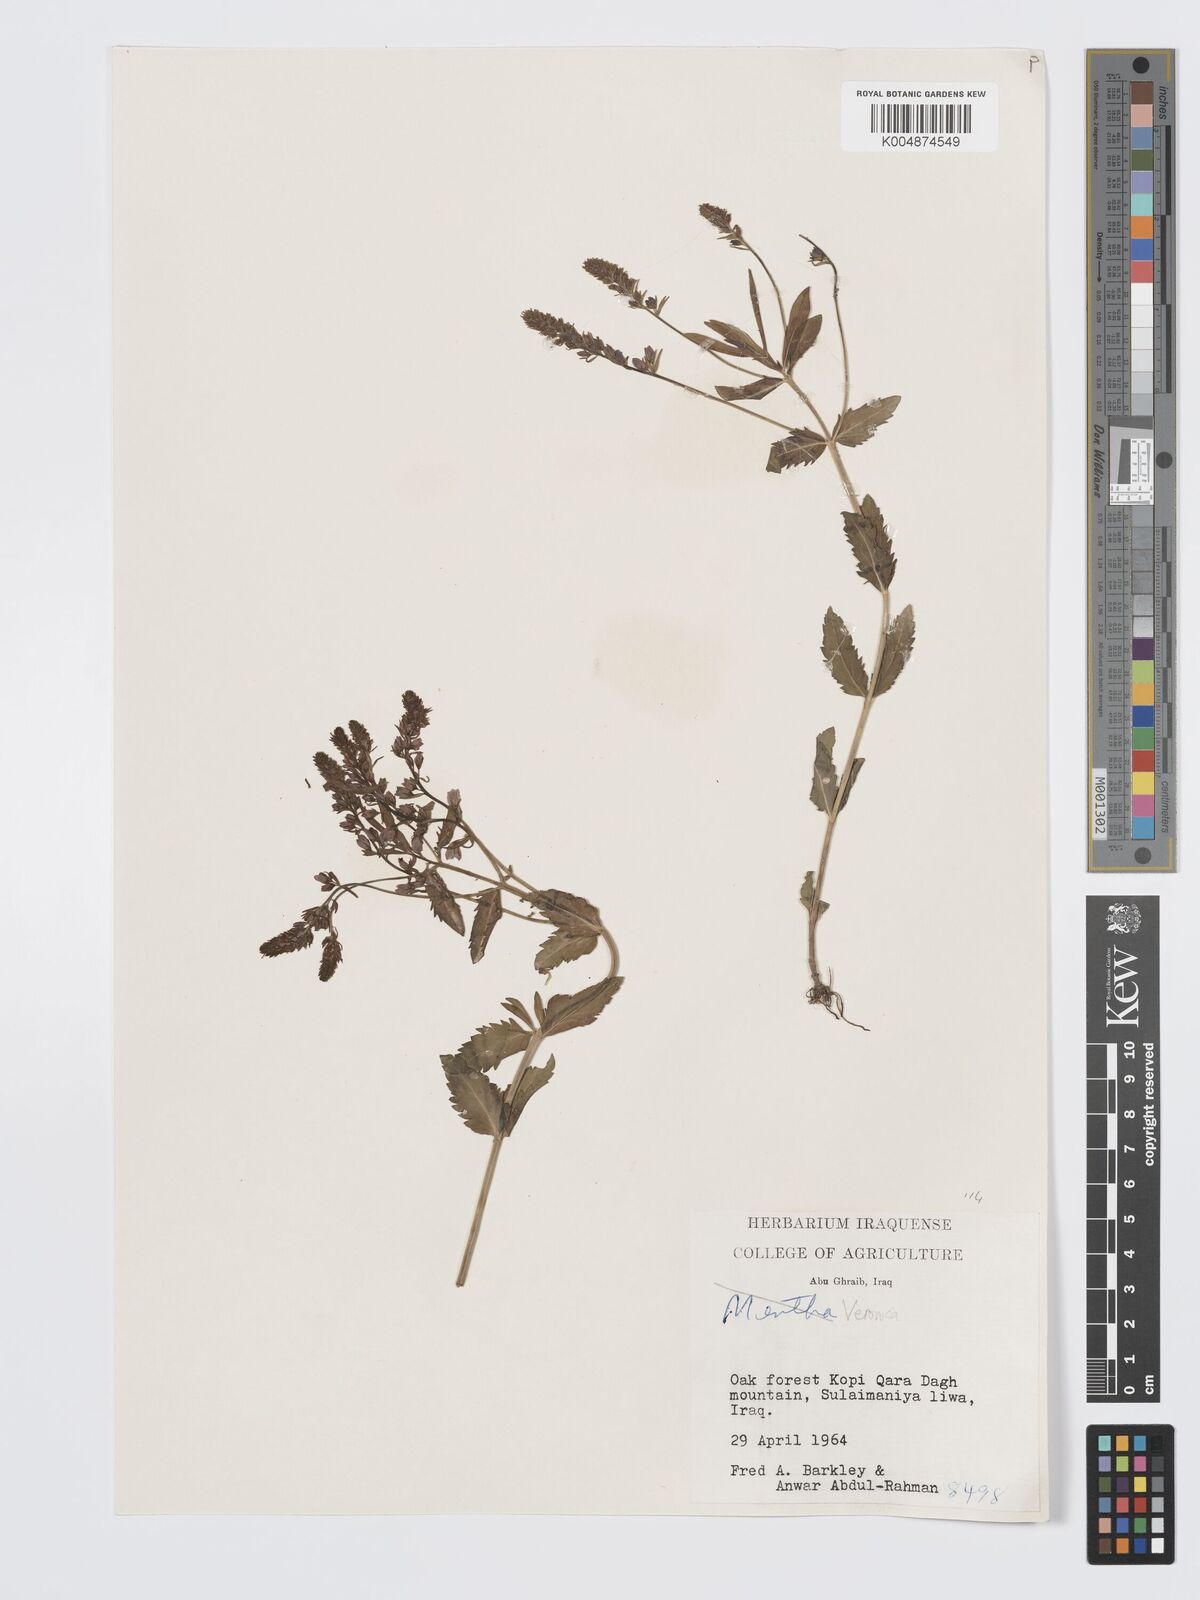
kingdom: Plantae
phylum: Tracheophyta
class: Magnoliopsida
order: Lamiales
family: Plantaginaceae
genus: Veronica
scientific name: Veronica
